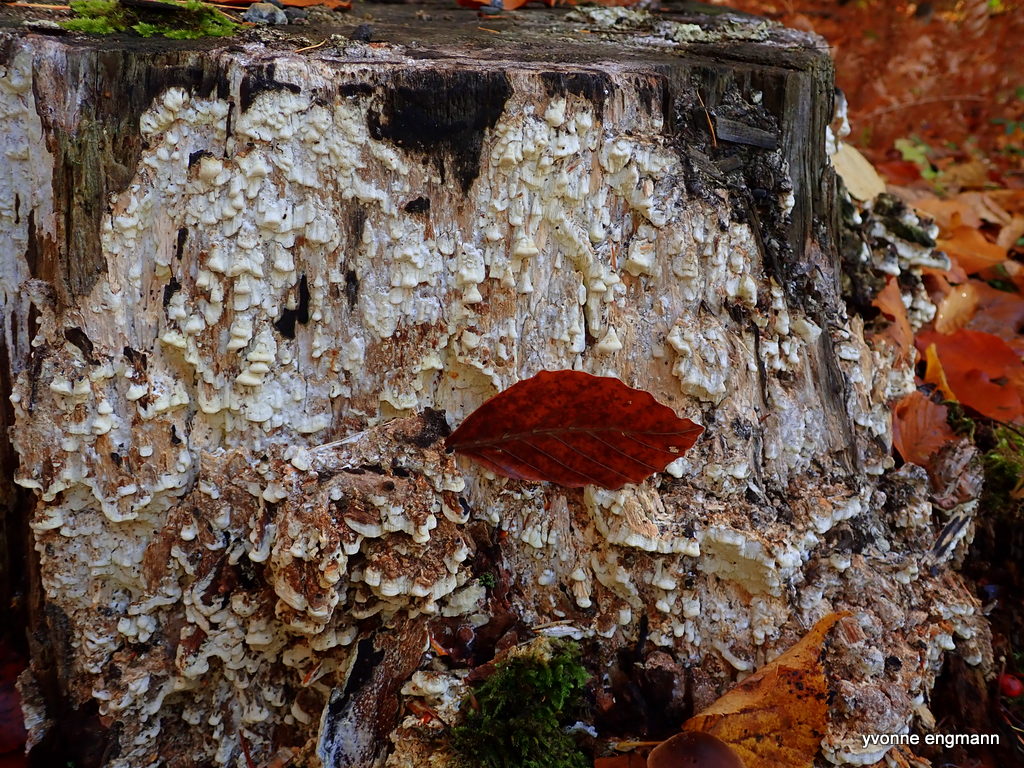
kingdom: Fungi
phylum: Basidiomycota
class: Agaricomycetes
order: Polyporales
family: Fomitopsidaceae
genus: Daedalea
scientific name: Daedalea xantha
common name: gul sejporesvamp
